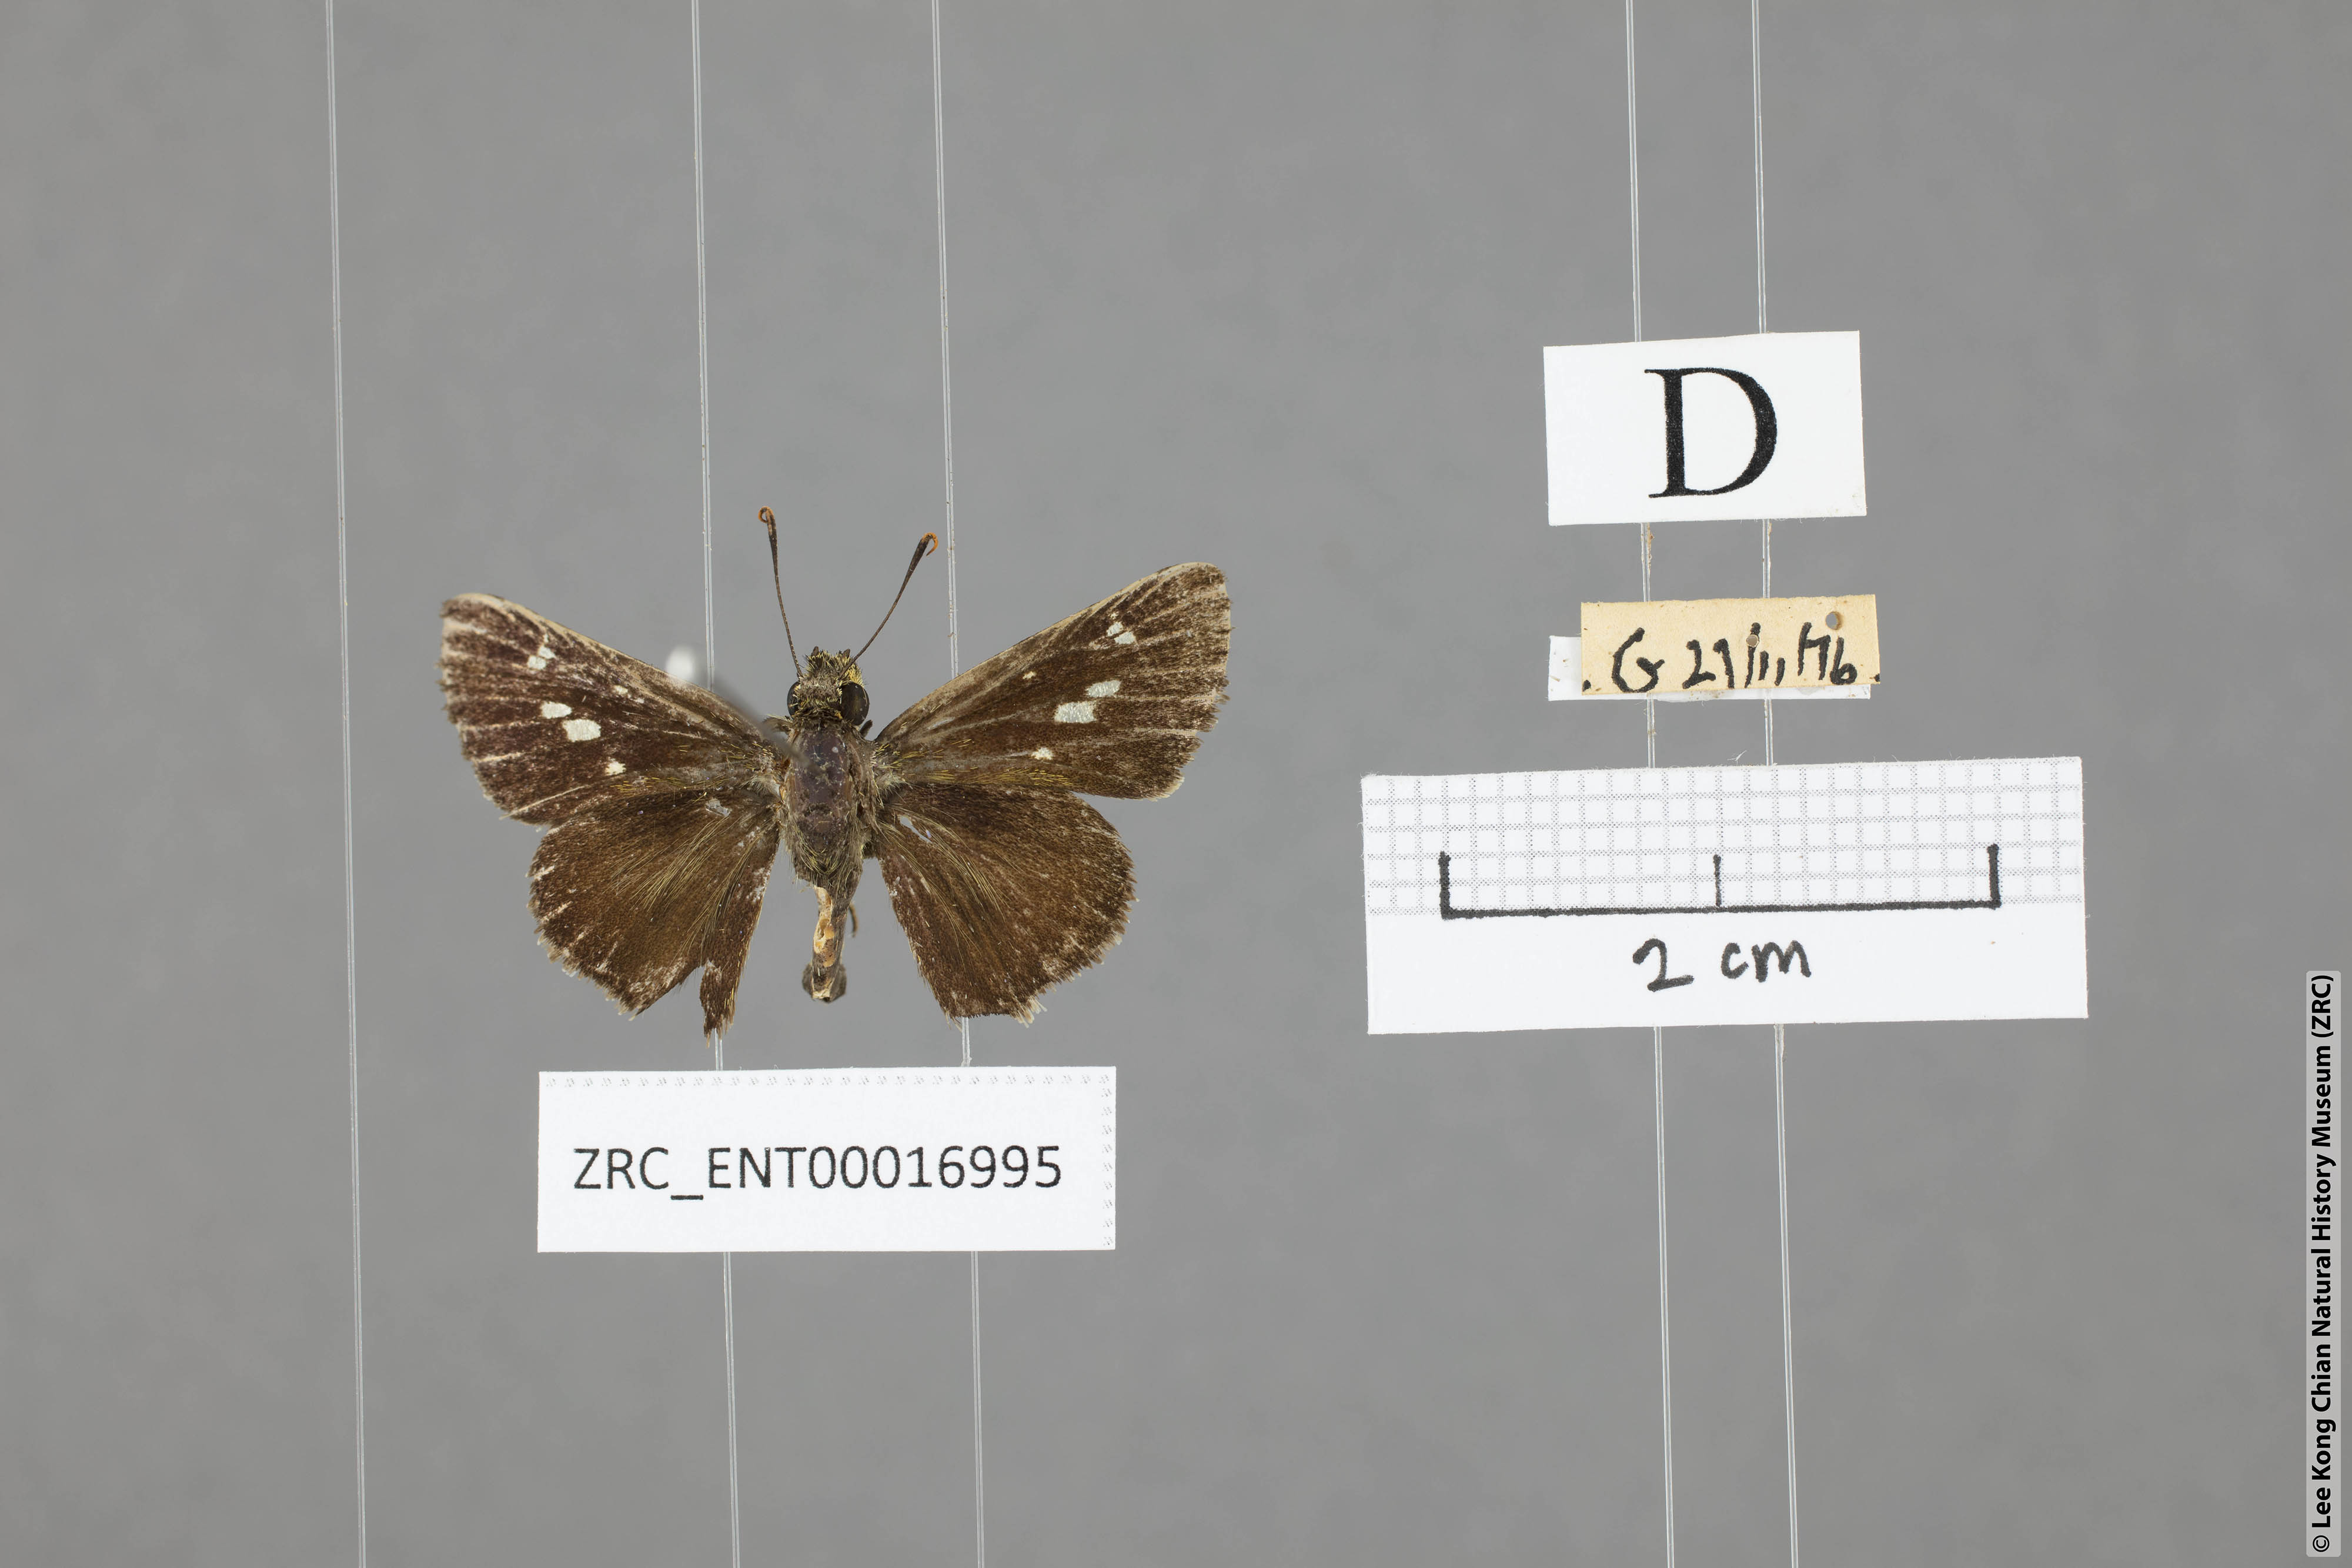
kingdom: Animalia
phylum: Arthropoda
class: Insecta
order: Lepidoptera
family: Hesperiidae
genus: Halpe
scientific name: Halpe flava
